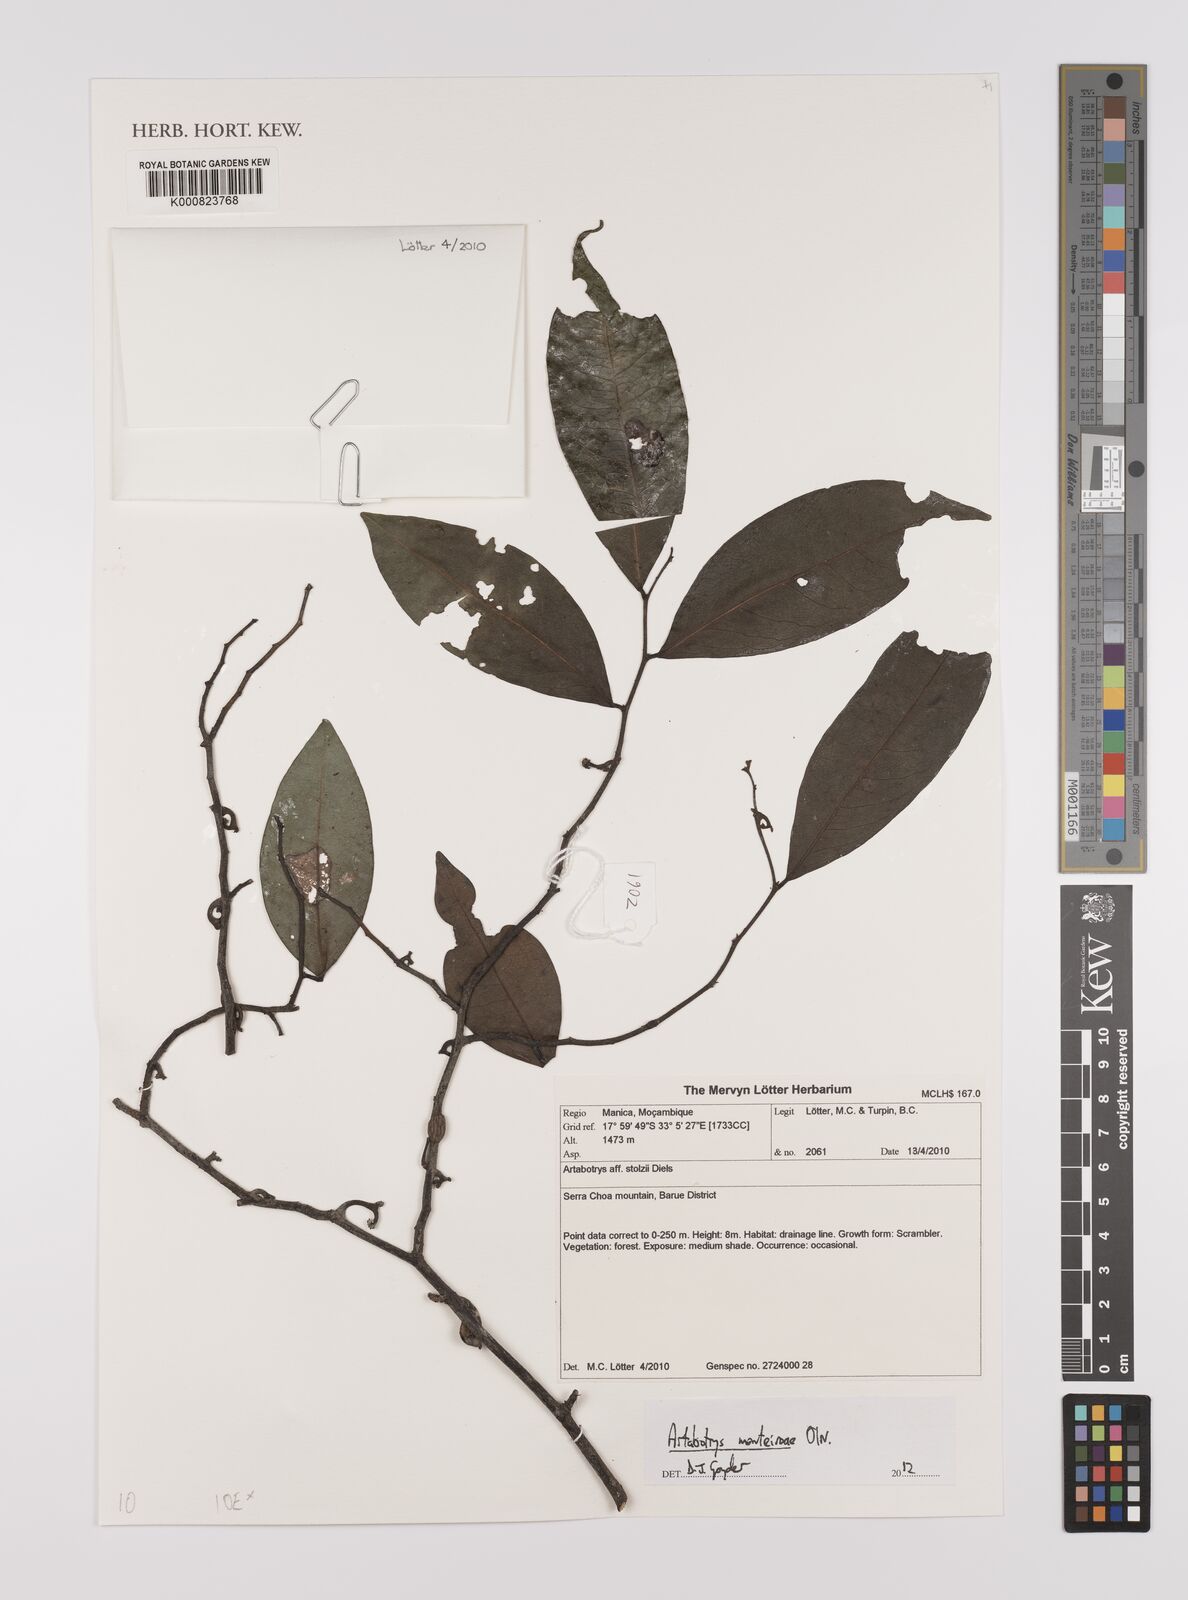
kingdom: Plantae
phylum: Tracheophyta
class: Magnoliopsida
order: Magnoliales
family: Annonaceae
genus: Artabotrys
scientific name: Artabotrys monteiroae
